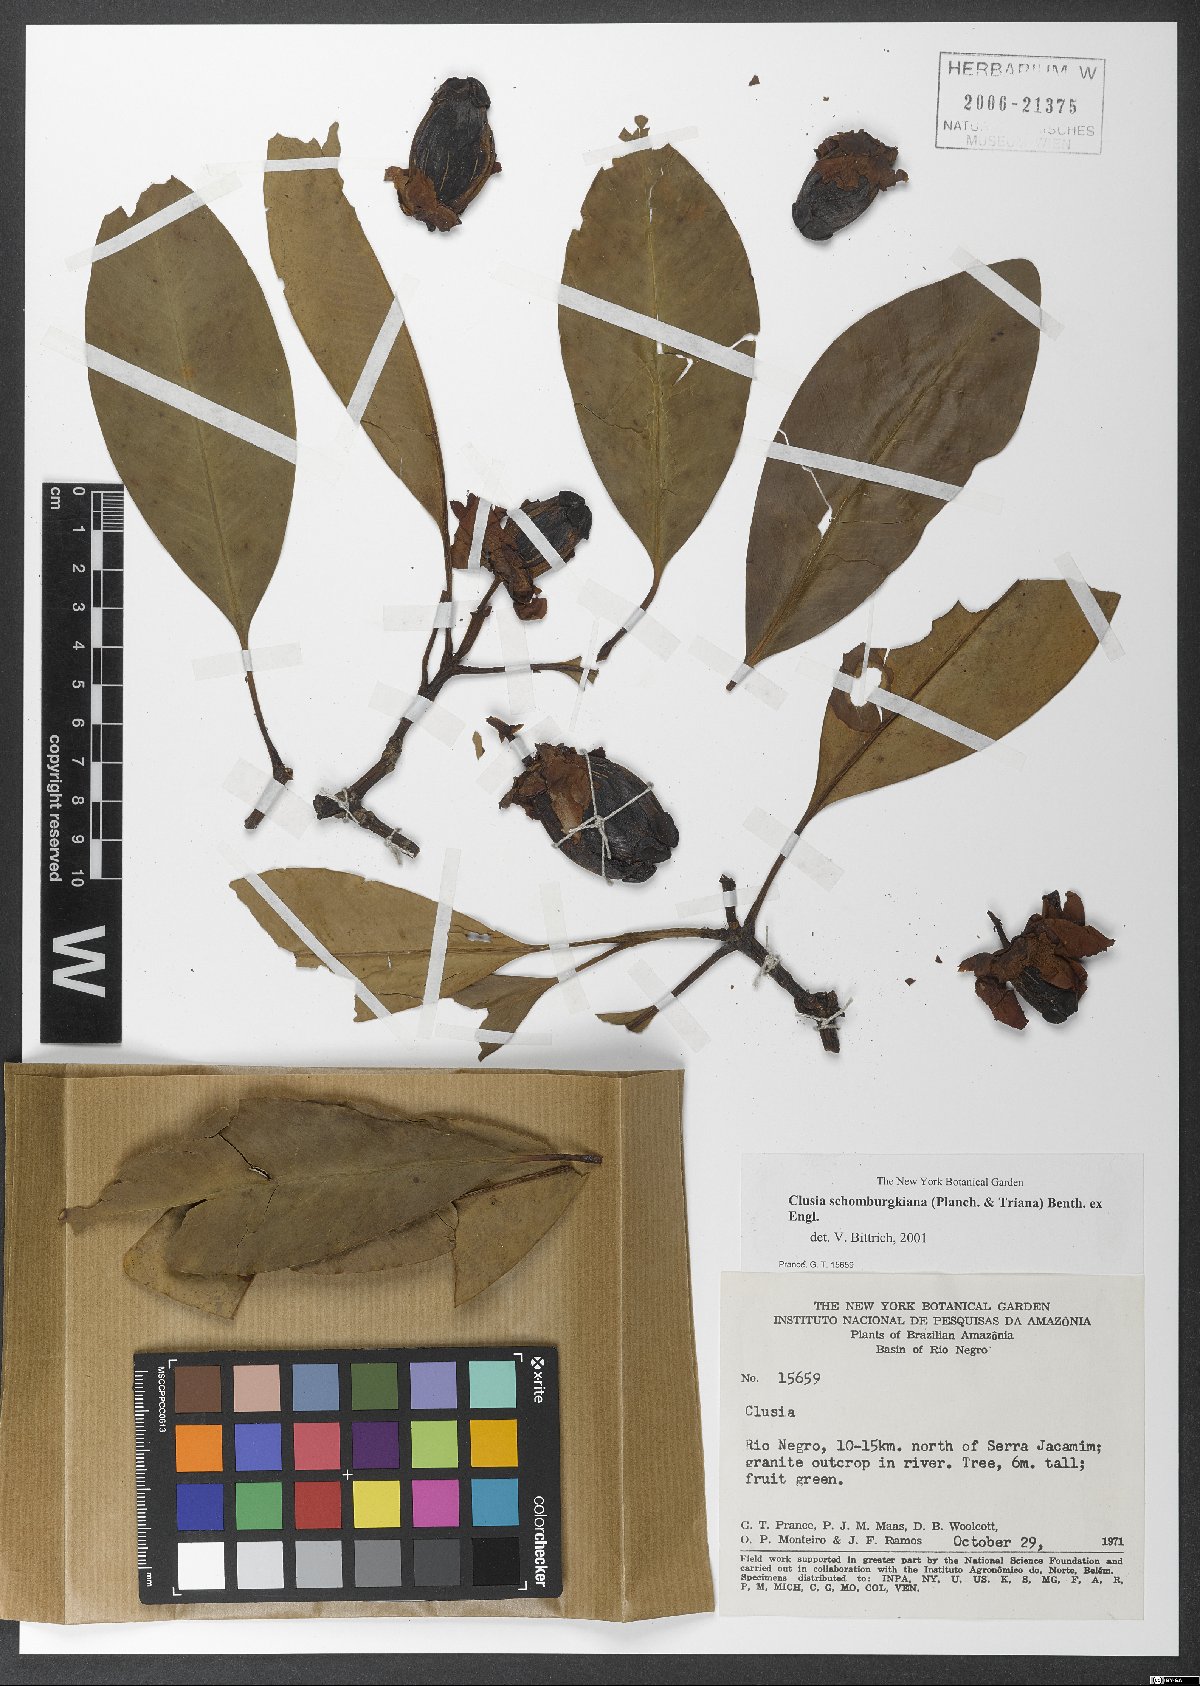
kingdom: Plantae
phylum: Tracheophyta
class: Magnoliopsida
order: Malpighiales
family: Clusiaceae
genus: Clusia
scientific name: Clusia schomburgkiana
